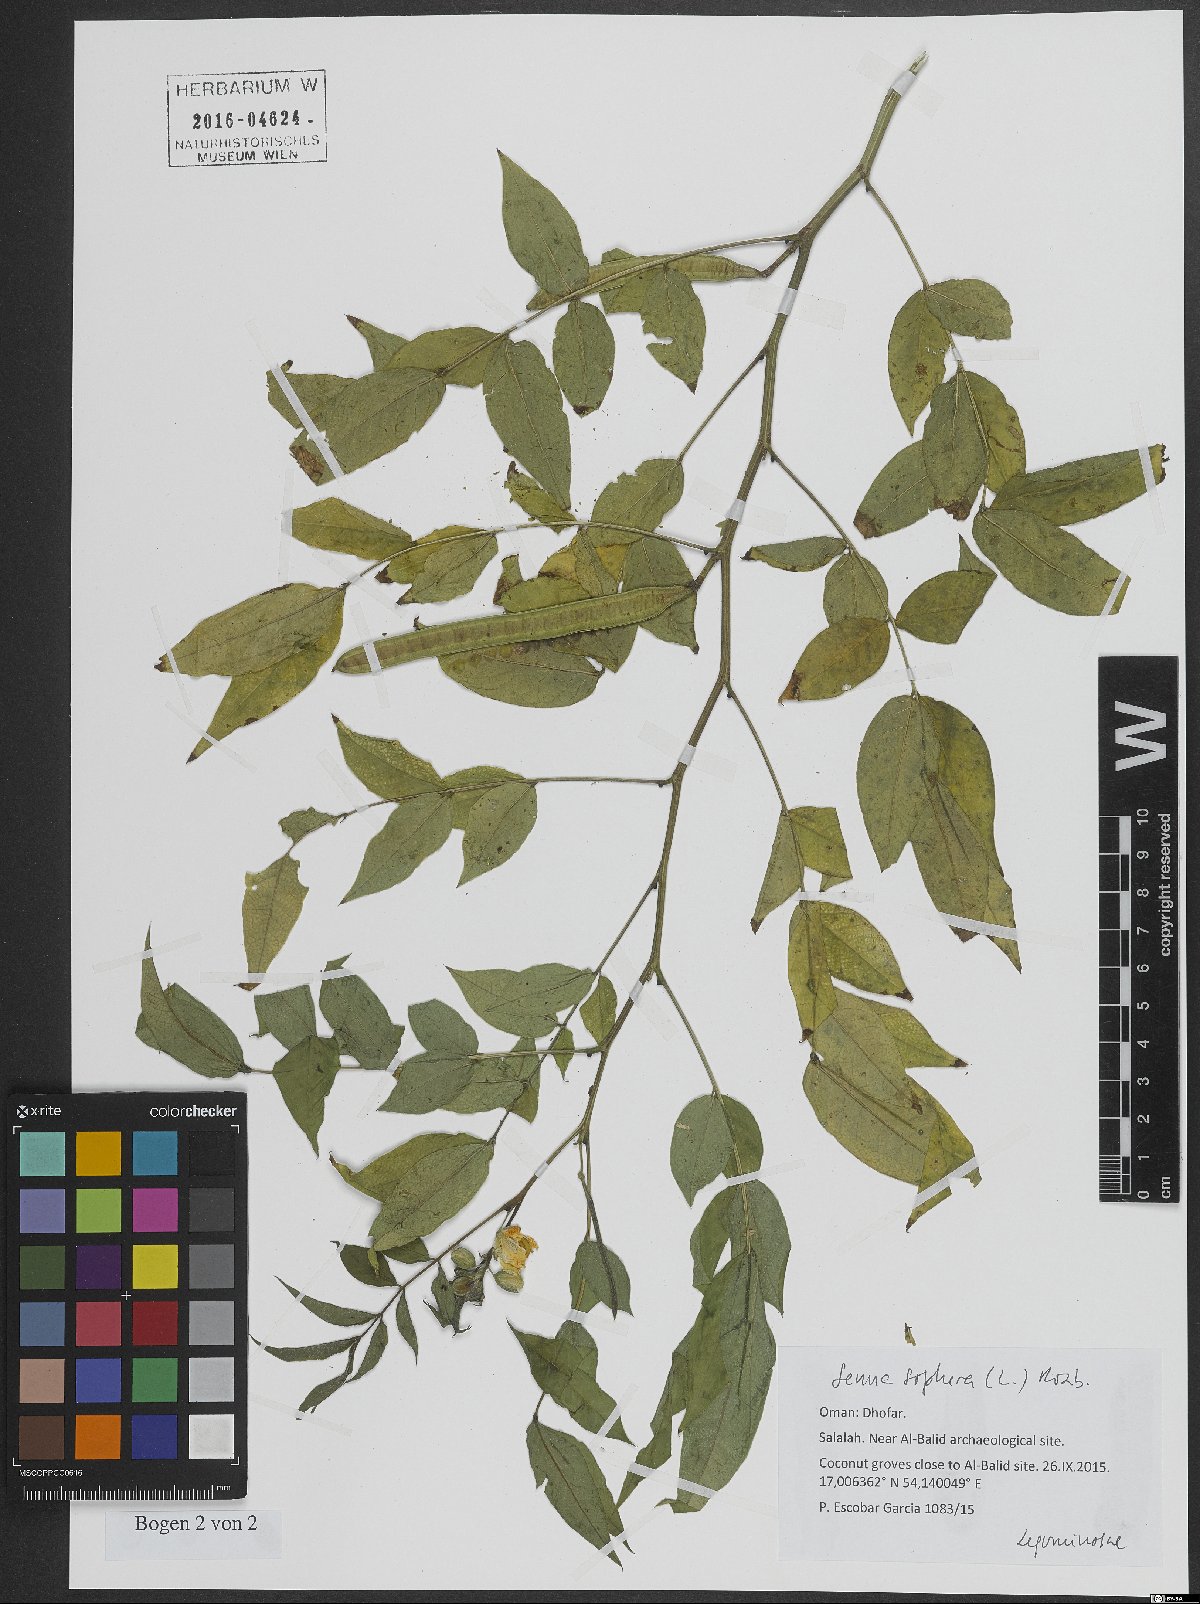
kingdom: Plantae
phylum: Tracheophyta
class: Magnoliopsida
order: Fabales
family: Fabaceae
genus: Senna
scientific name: Senna sophera
